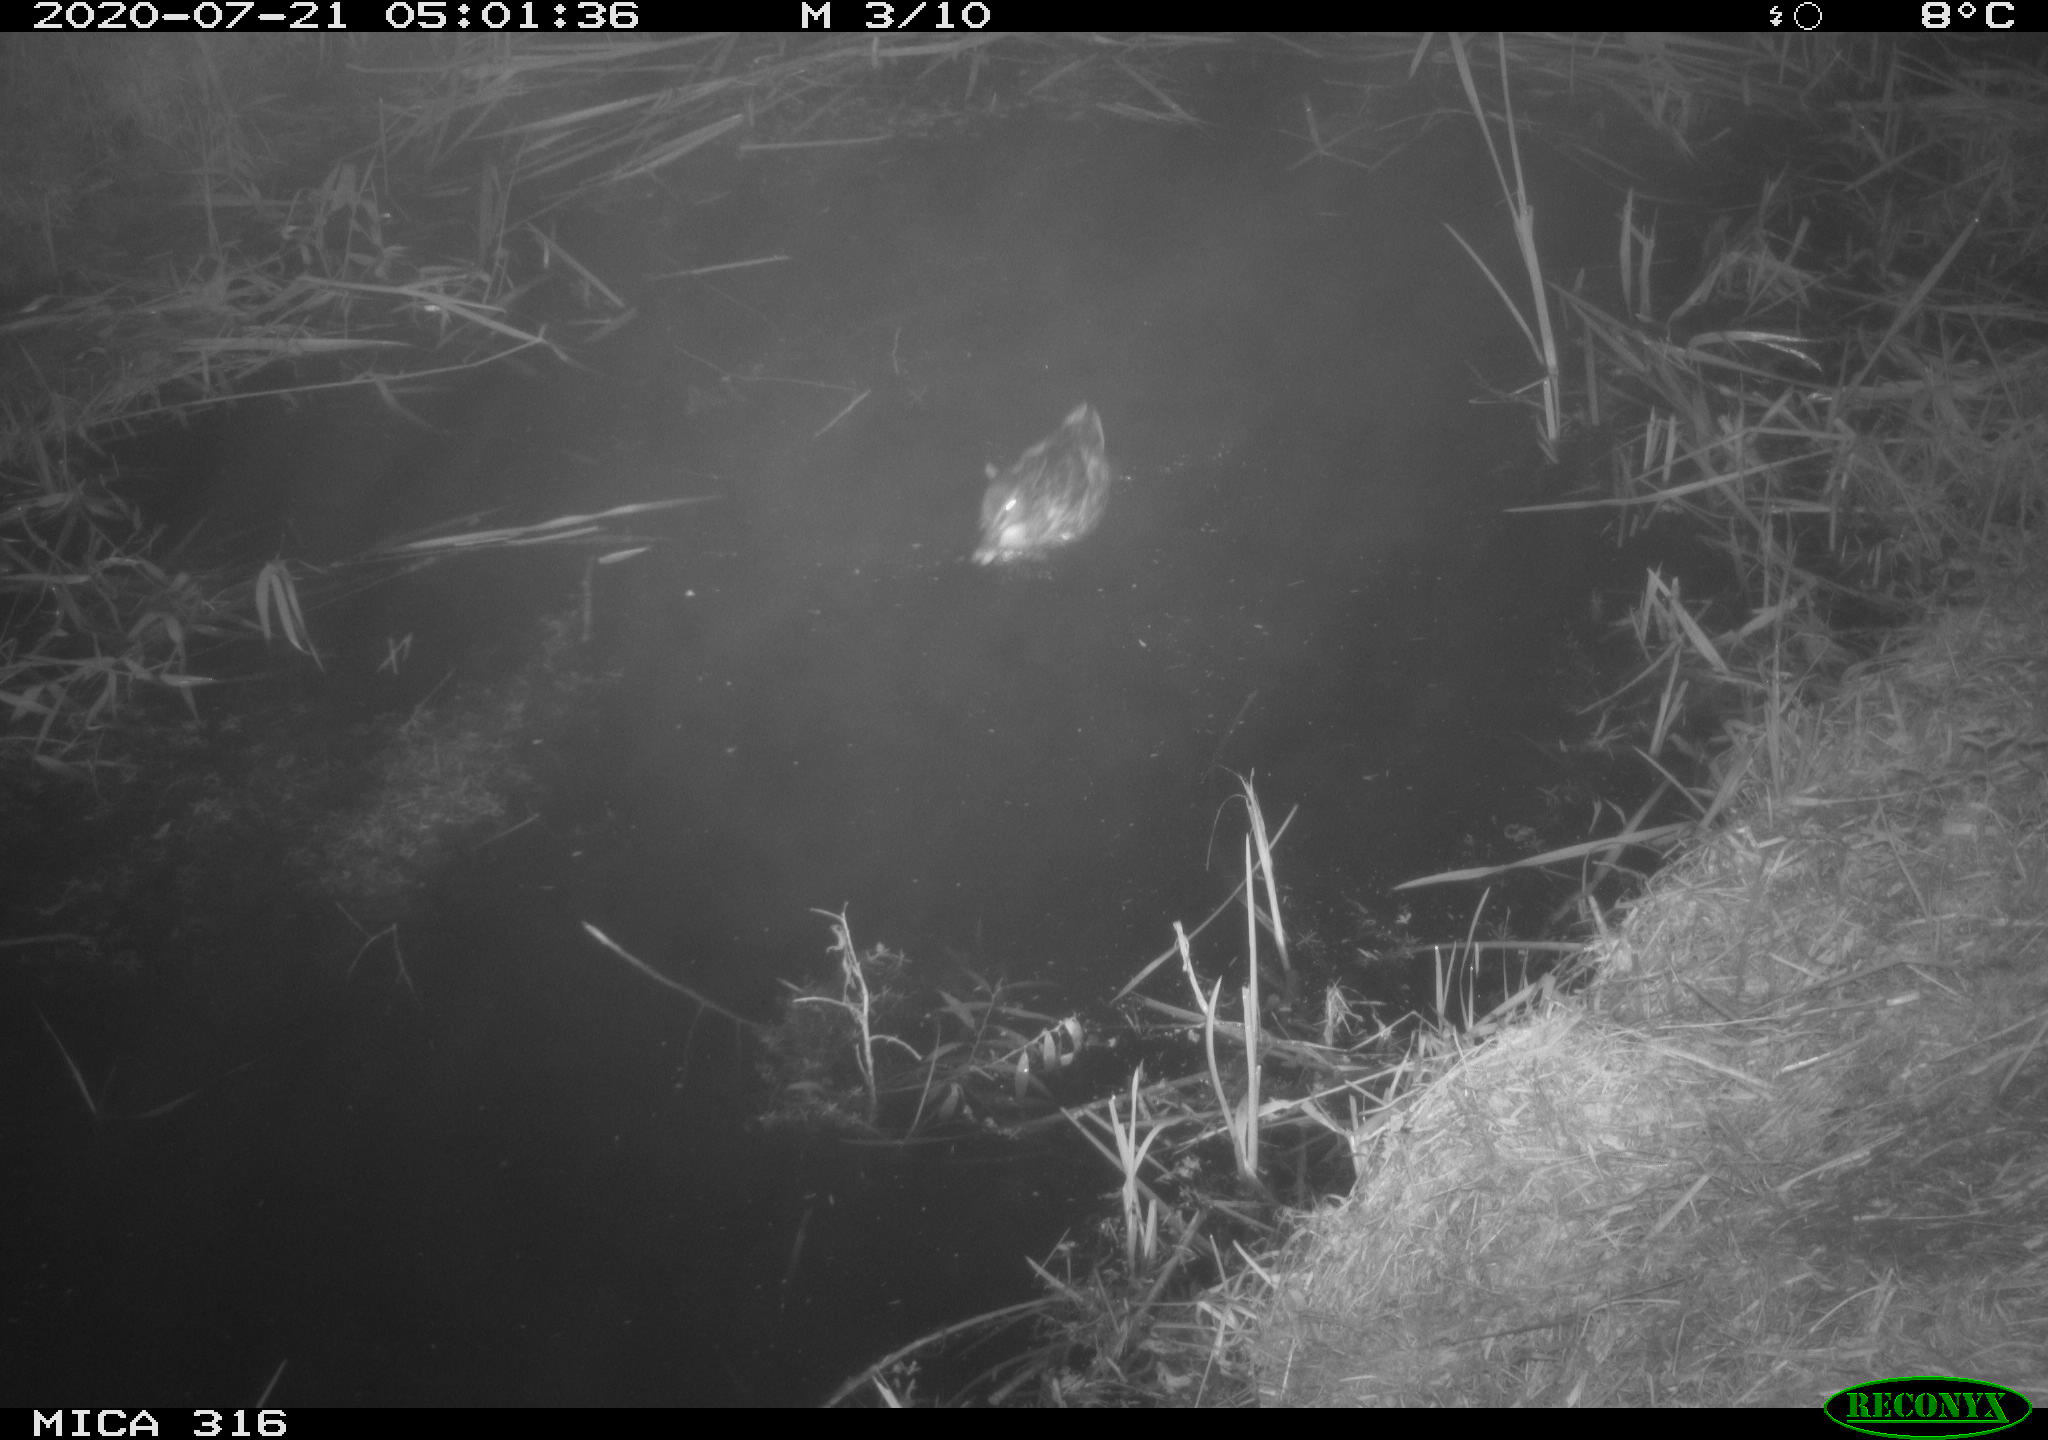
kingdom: Animalia
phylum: Chordata
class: Aves
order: Anseriformes
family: Anatidae
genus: Anas
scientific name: Anas platyrhynchos
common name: Mallard
